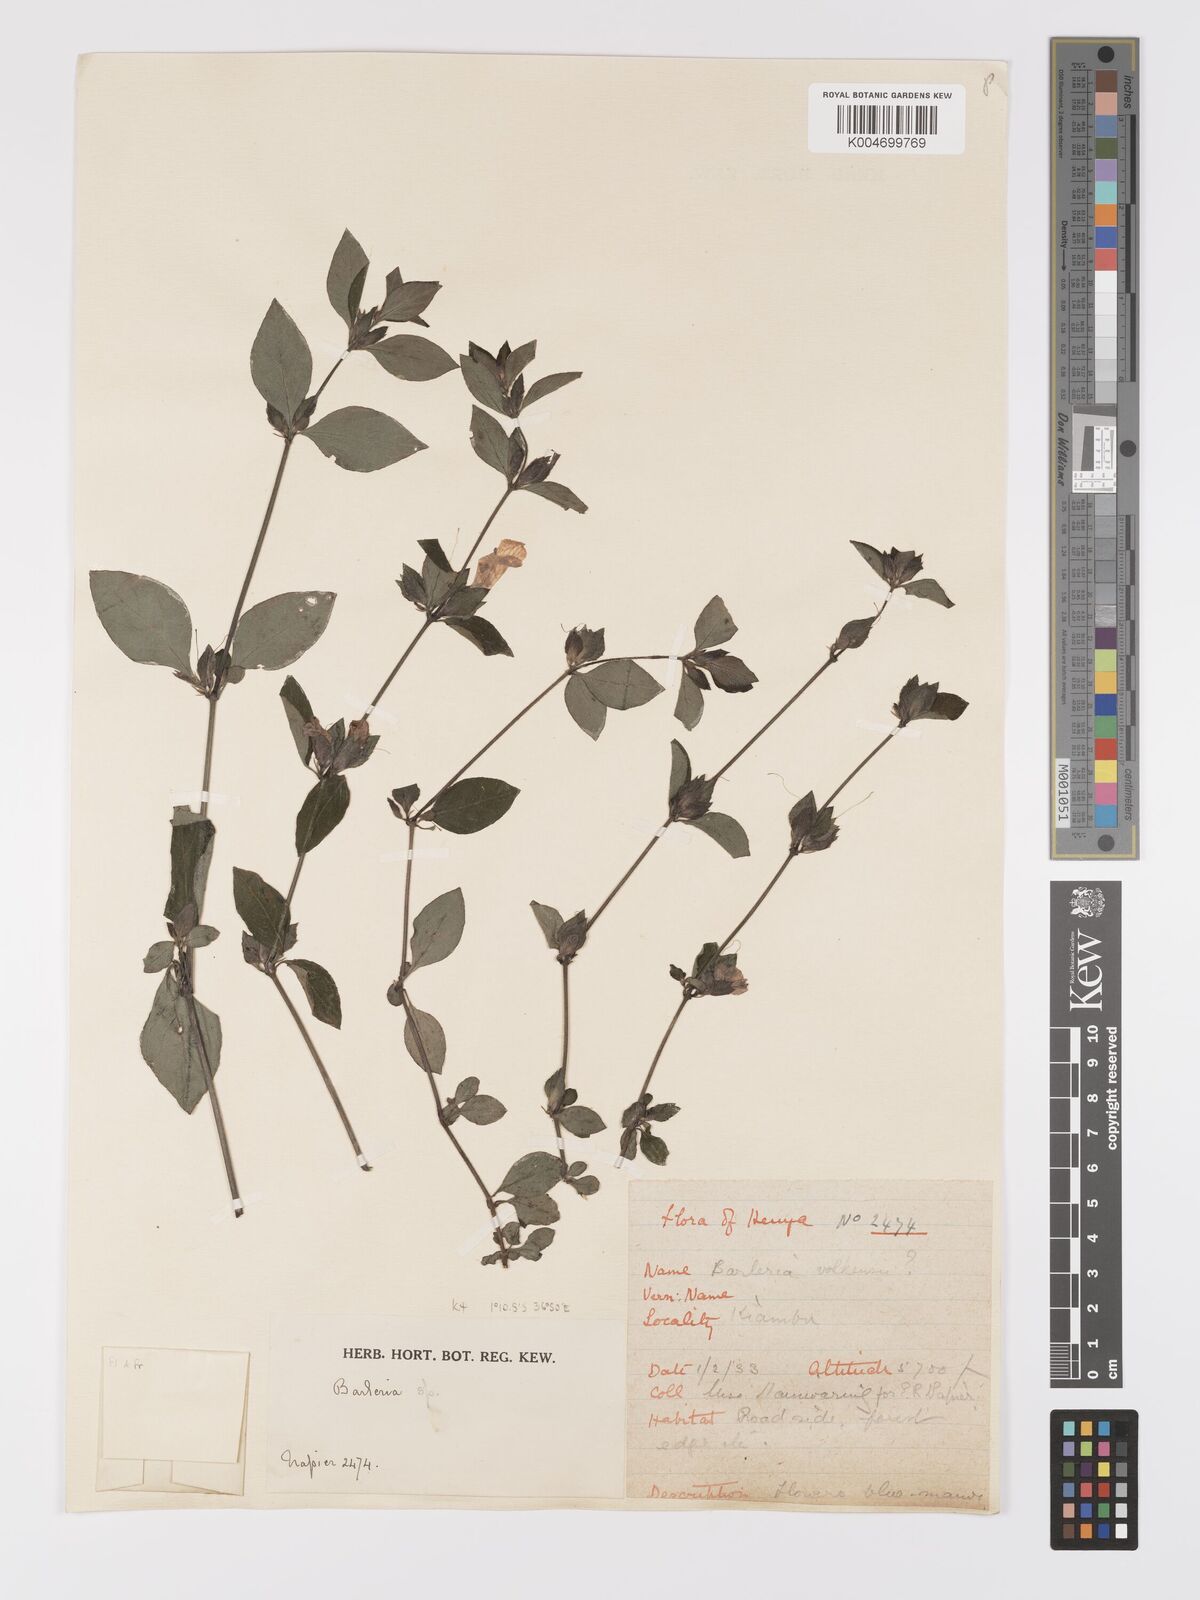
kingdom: Plantae
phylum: Tracheophyta
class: Magnoliopsida
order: Lamiales
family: Acanthaceae
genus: Barleria
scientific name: Barleria ventricosa
